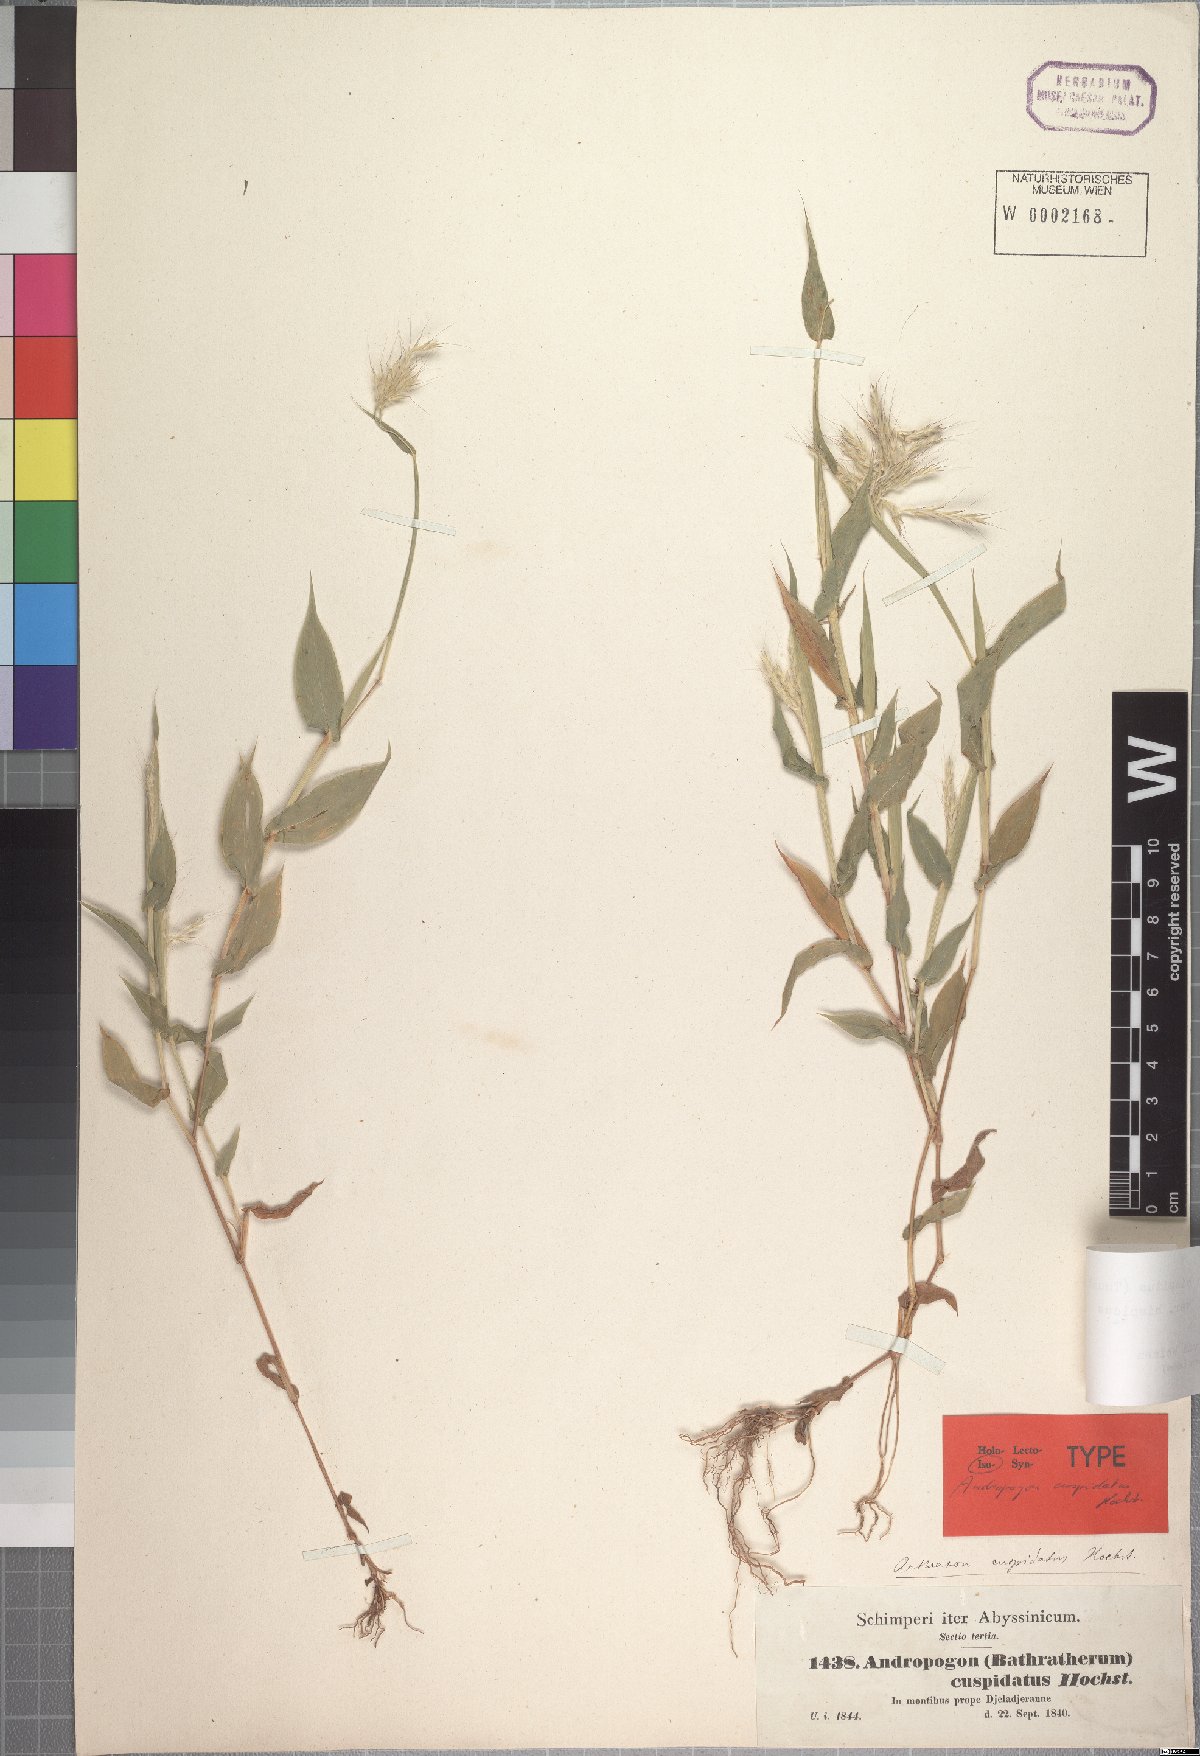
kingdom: Plantae
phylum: Tracheophyta
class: Liliopsida
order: Poales
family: Poaceae
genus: Arthraxon
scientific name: Arthraxon cuspidatus
